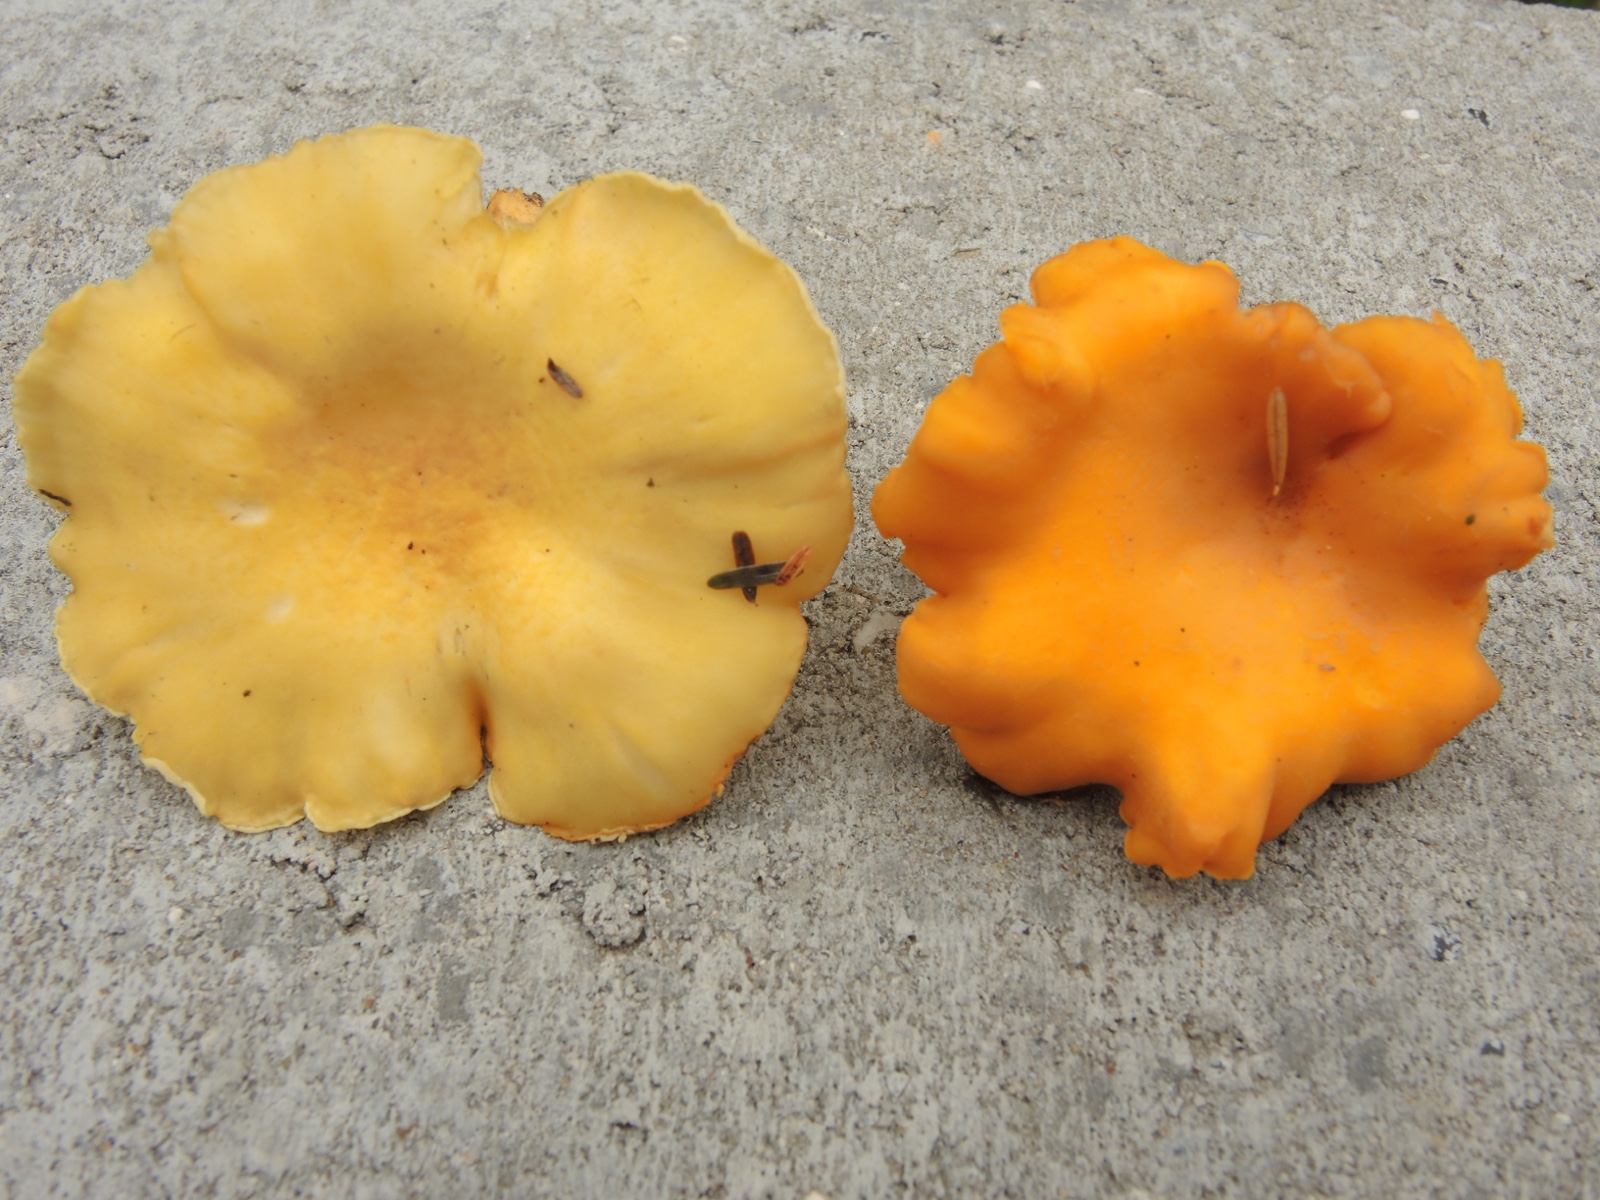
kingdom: Fungi
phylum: Basidiomycota
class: Agaricomycetes
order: Cantharellales
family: Hydnaceae
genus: Cantharellus
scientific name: Cantharellus
